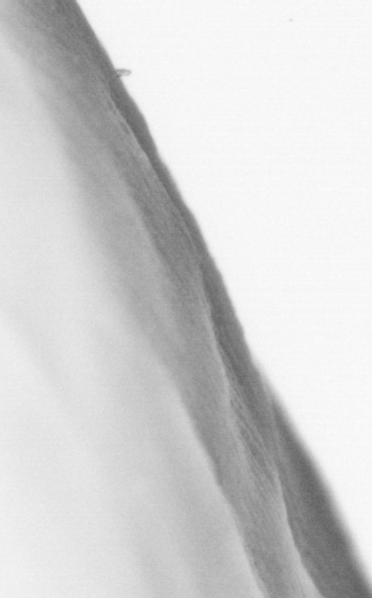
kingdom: Animalia
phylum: Chordata
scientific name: Chordata
